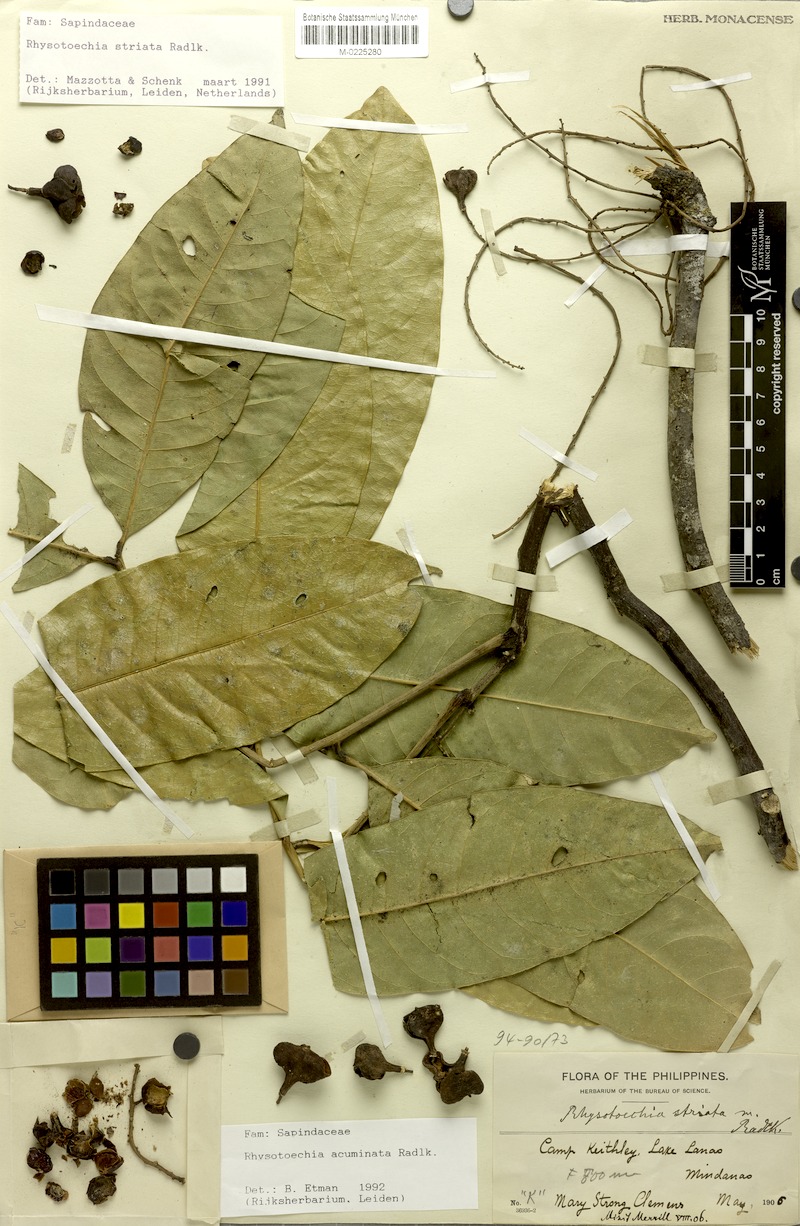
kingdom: Plantae
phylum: Tracheophyta
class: Magnoliopsida
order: Sapindales
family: Sapindaceae
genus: Rhysotoechia
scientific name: Rhysotoechia ramiflora
